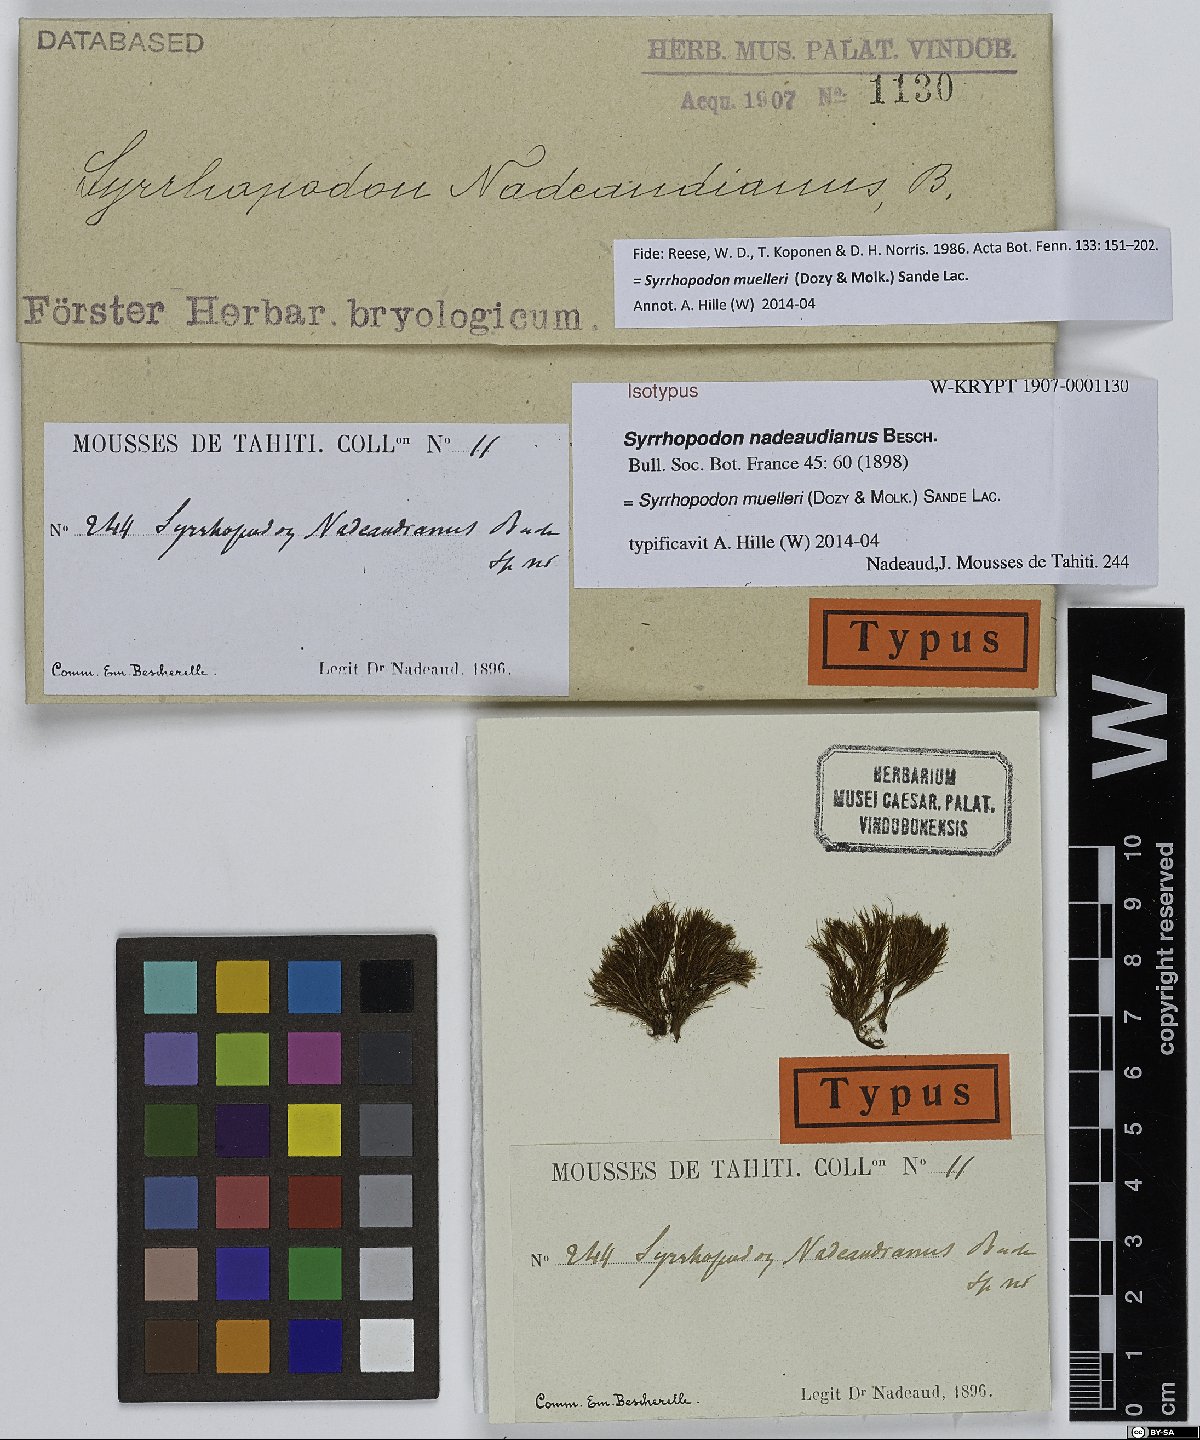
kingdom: Plantae
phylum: Bryophyta
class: Bryopsida
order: Dicranales
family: Calymperaceae
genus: Syrrhopodon
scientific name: Syrrhopodon muelleri
